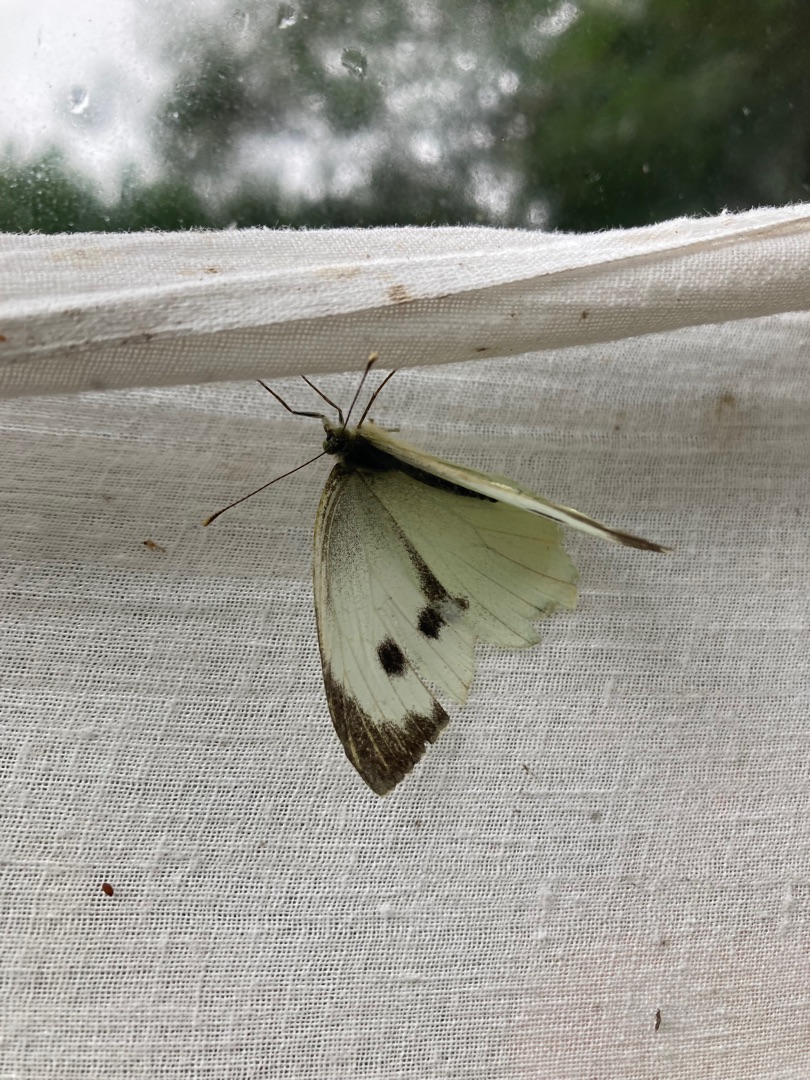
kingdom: Animalia
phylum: Arthropoda
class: Insecta
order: Lepidoptera
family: Pieridae
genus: Pieris
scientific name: Pieris brassicae
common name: Stor kålsommerfugl
